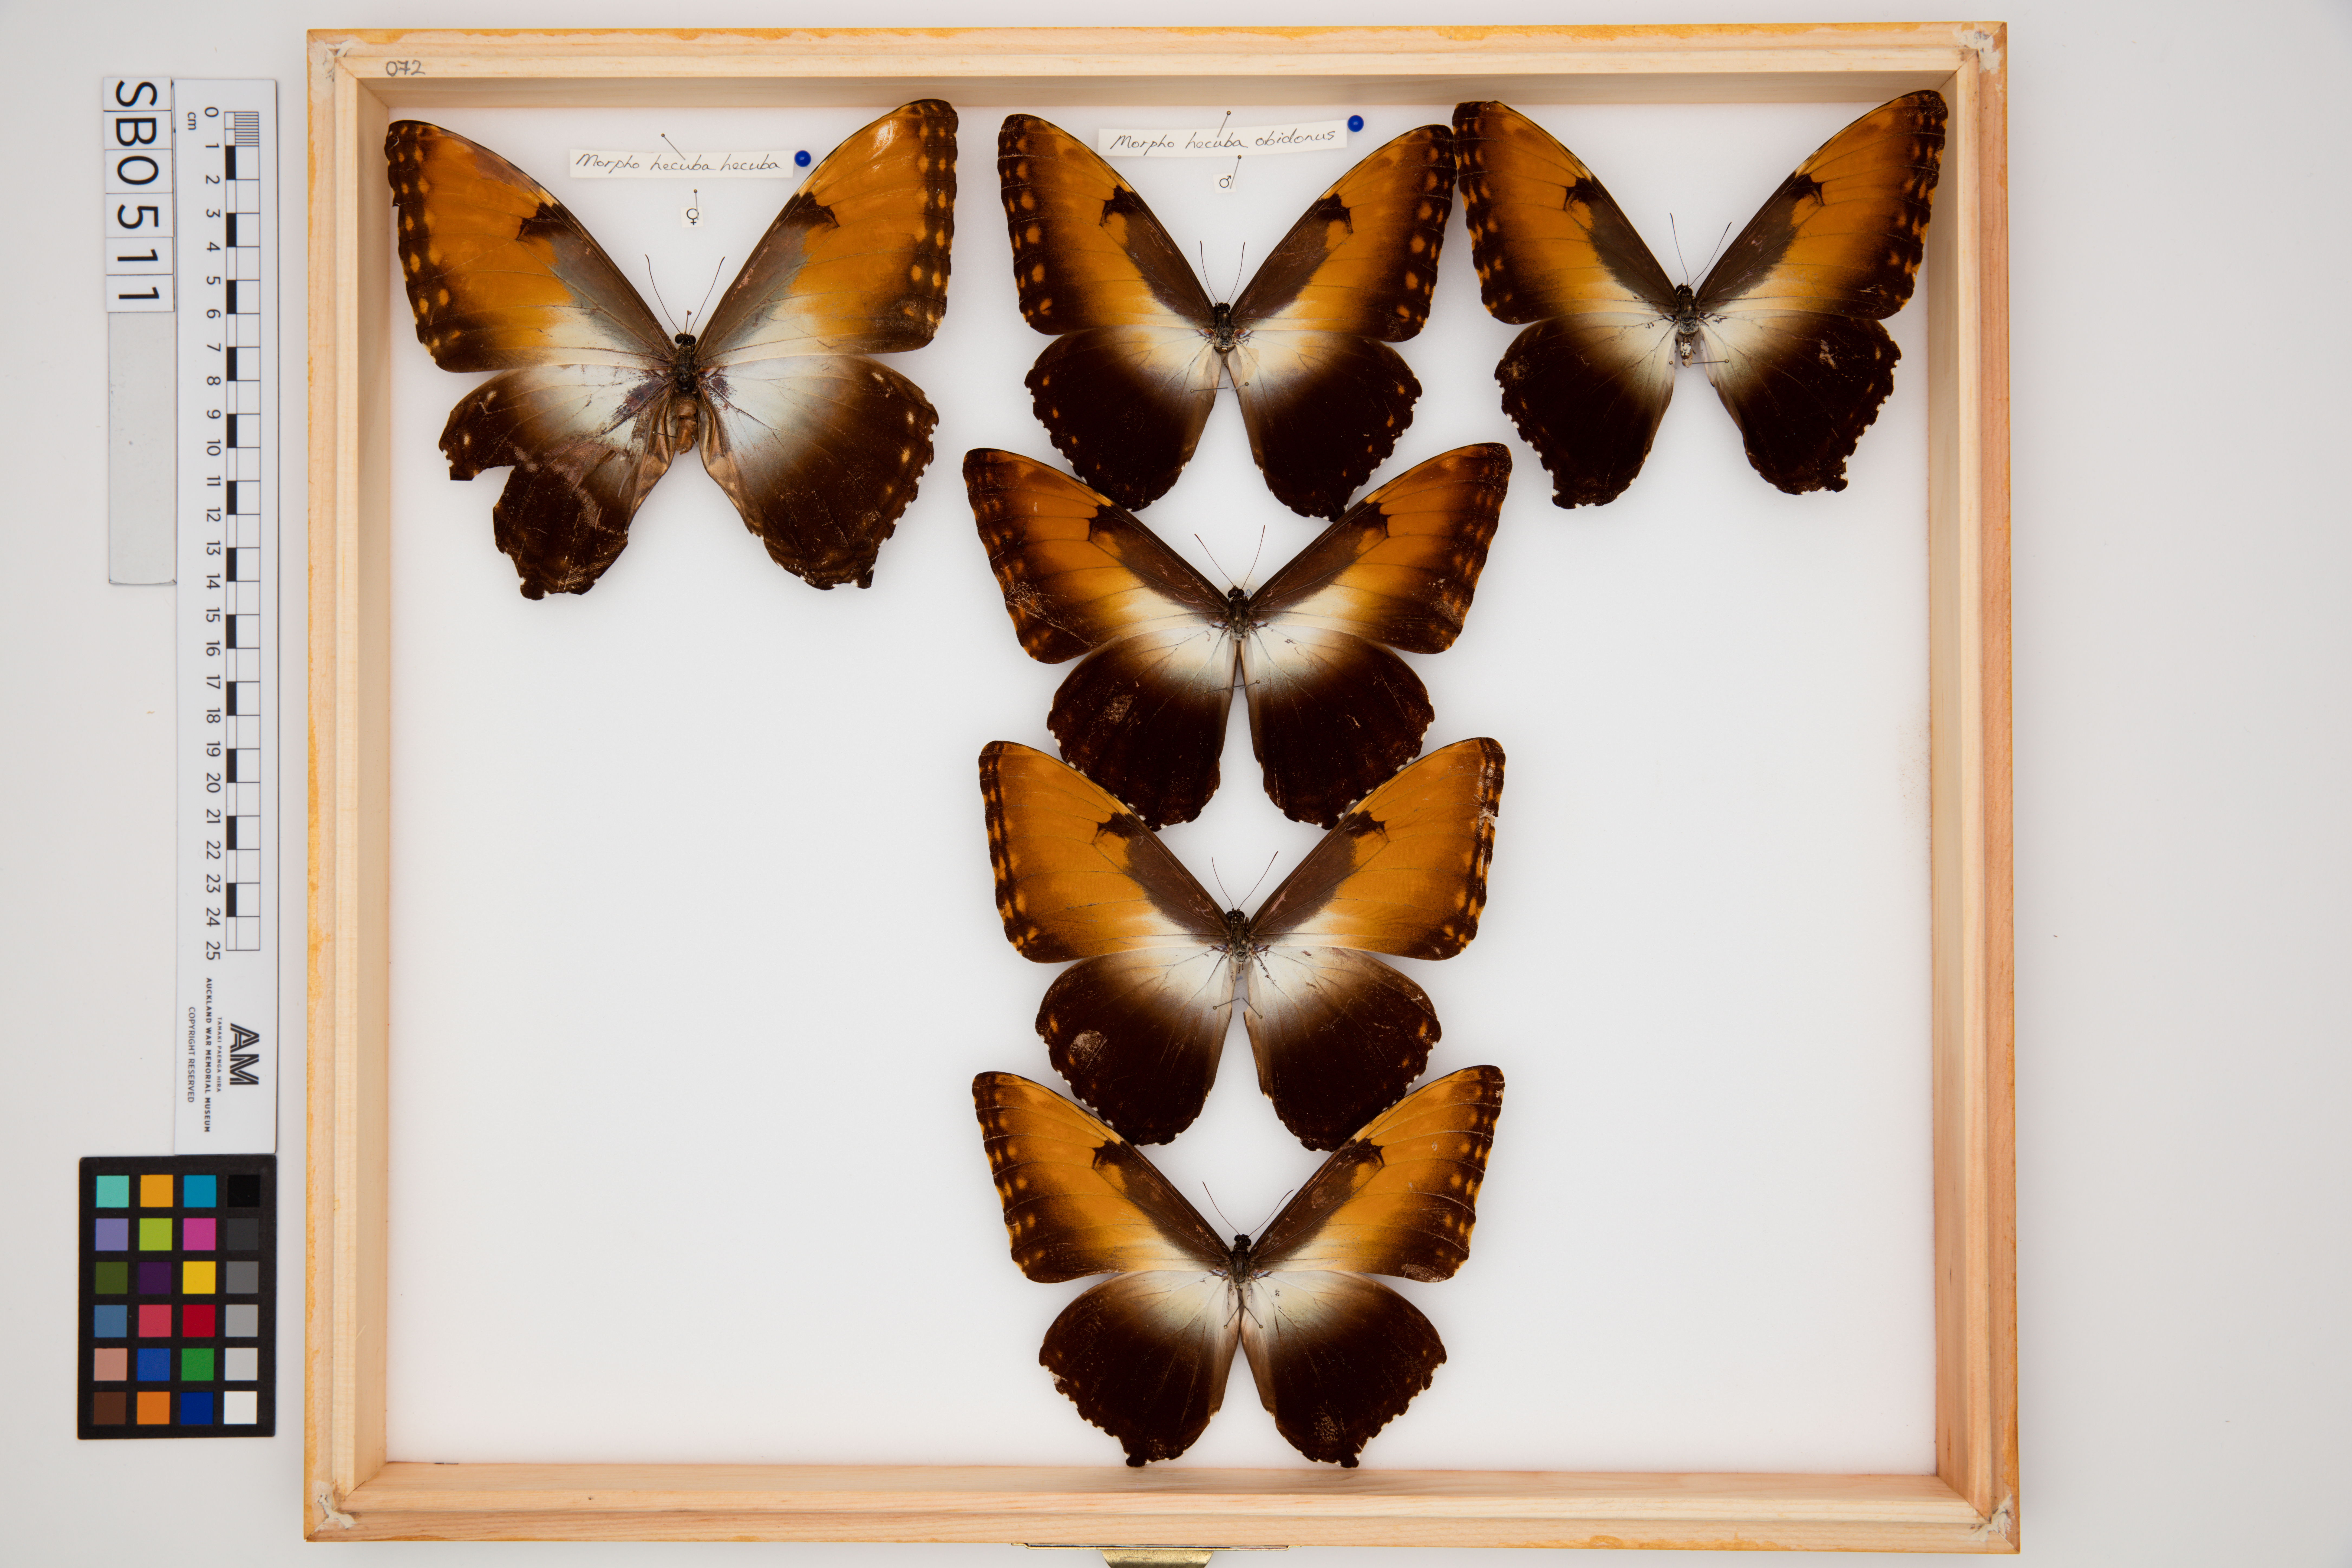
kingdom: Animalia
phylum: Arthropoda
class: Insecta
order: Lepidoptera
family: Nymphalidae
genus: Morpho
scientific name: Morpho hecuba
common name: Sunset morpho
